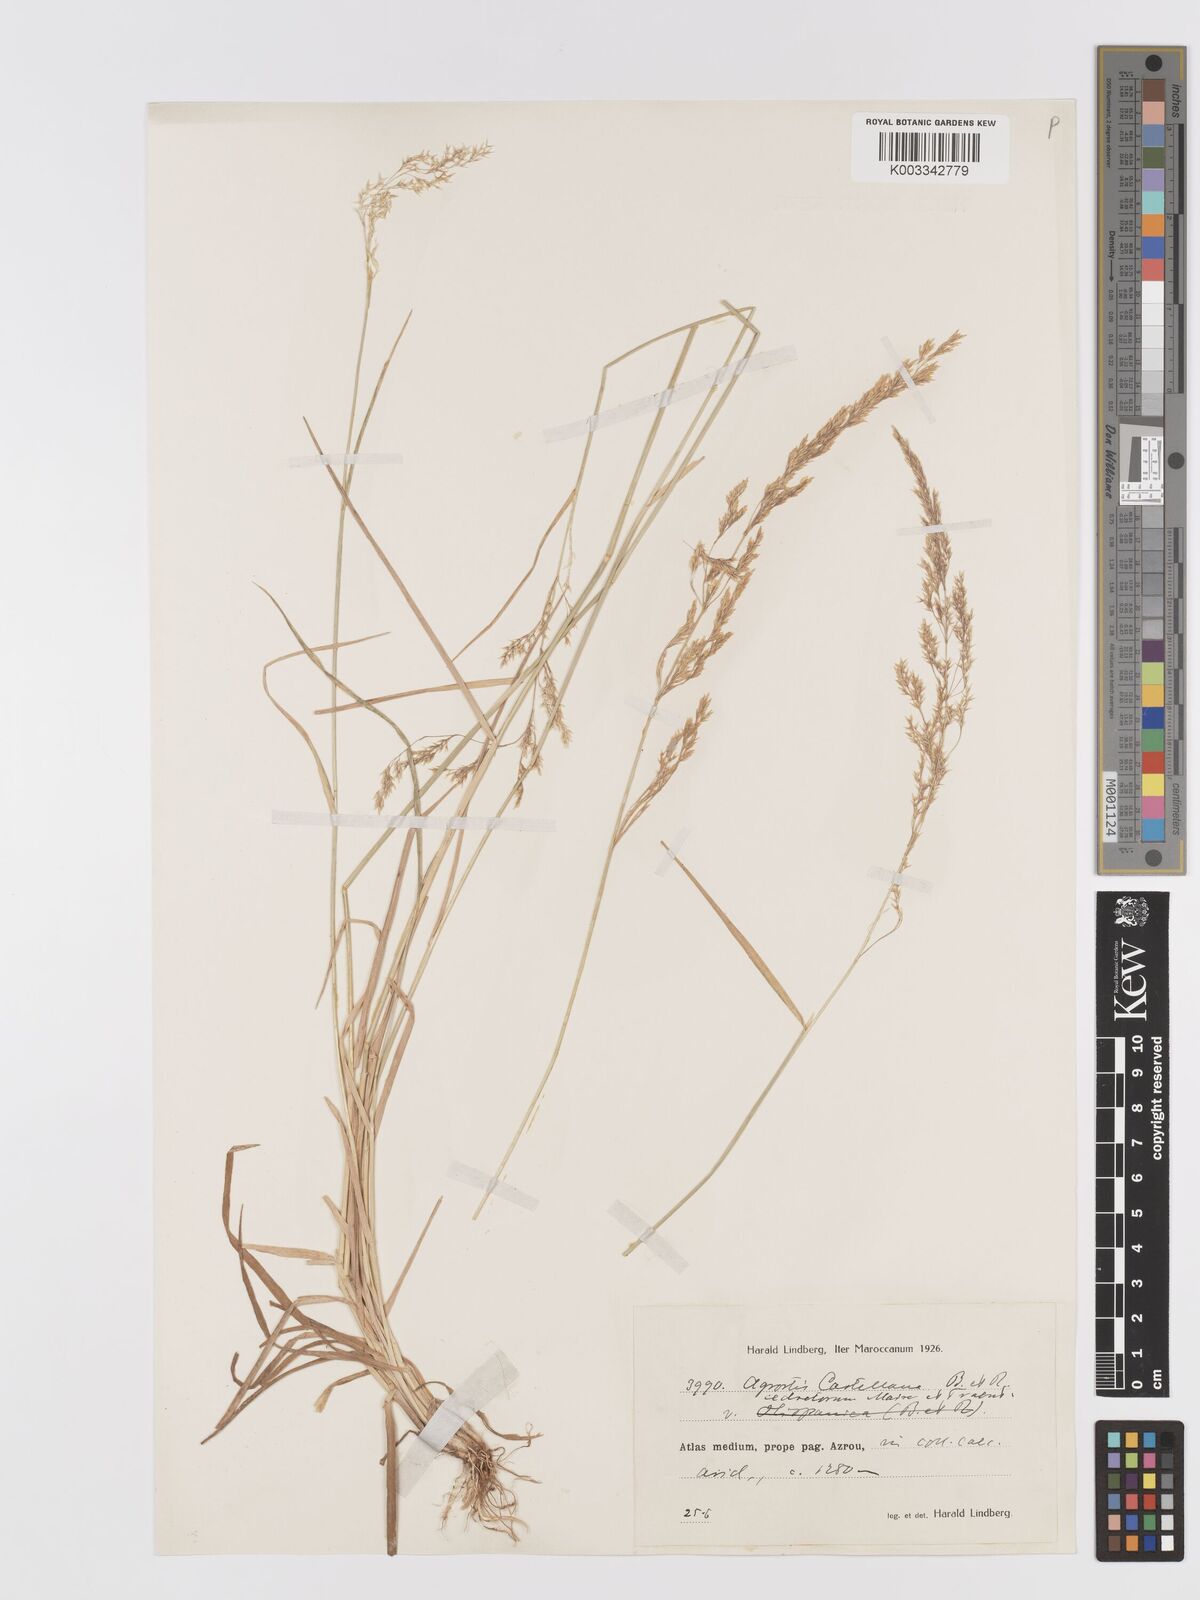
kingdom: Plantae
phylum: Tracheophyta
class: Liliopsida
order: Poales
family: Poaceae
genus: Agrostis
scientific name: Agrostis castellana
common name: Highland bent
